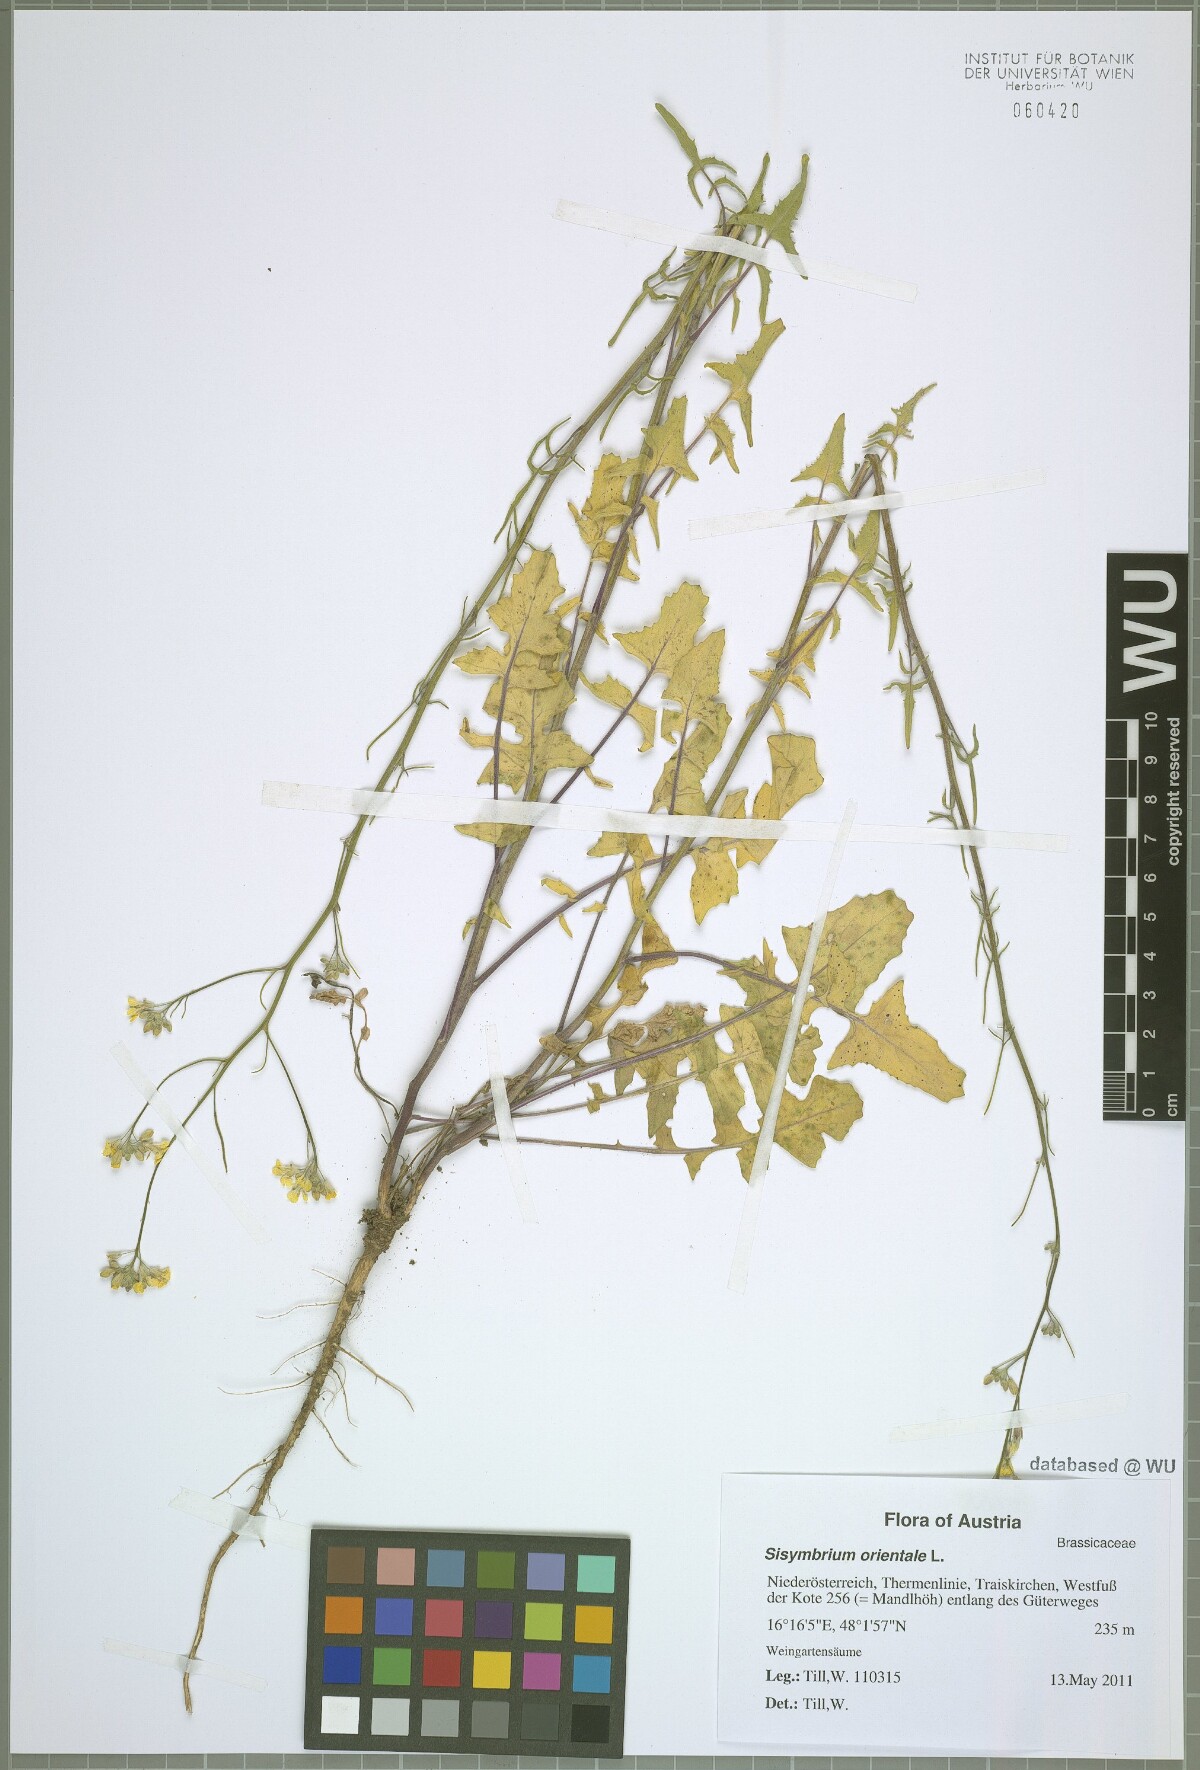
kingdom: Plantae
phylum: Tracheophyta
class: Magnoliopsida
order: Brassicales
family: Brassicaceae
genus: Sisymbrium
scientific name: Sisymbrium orientale
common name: Eastern rocket
